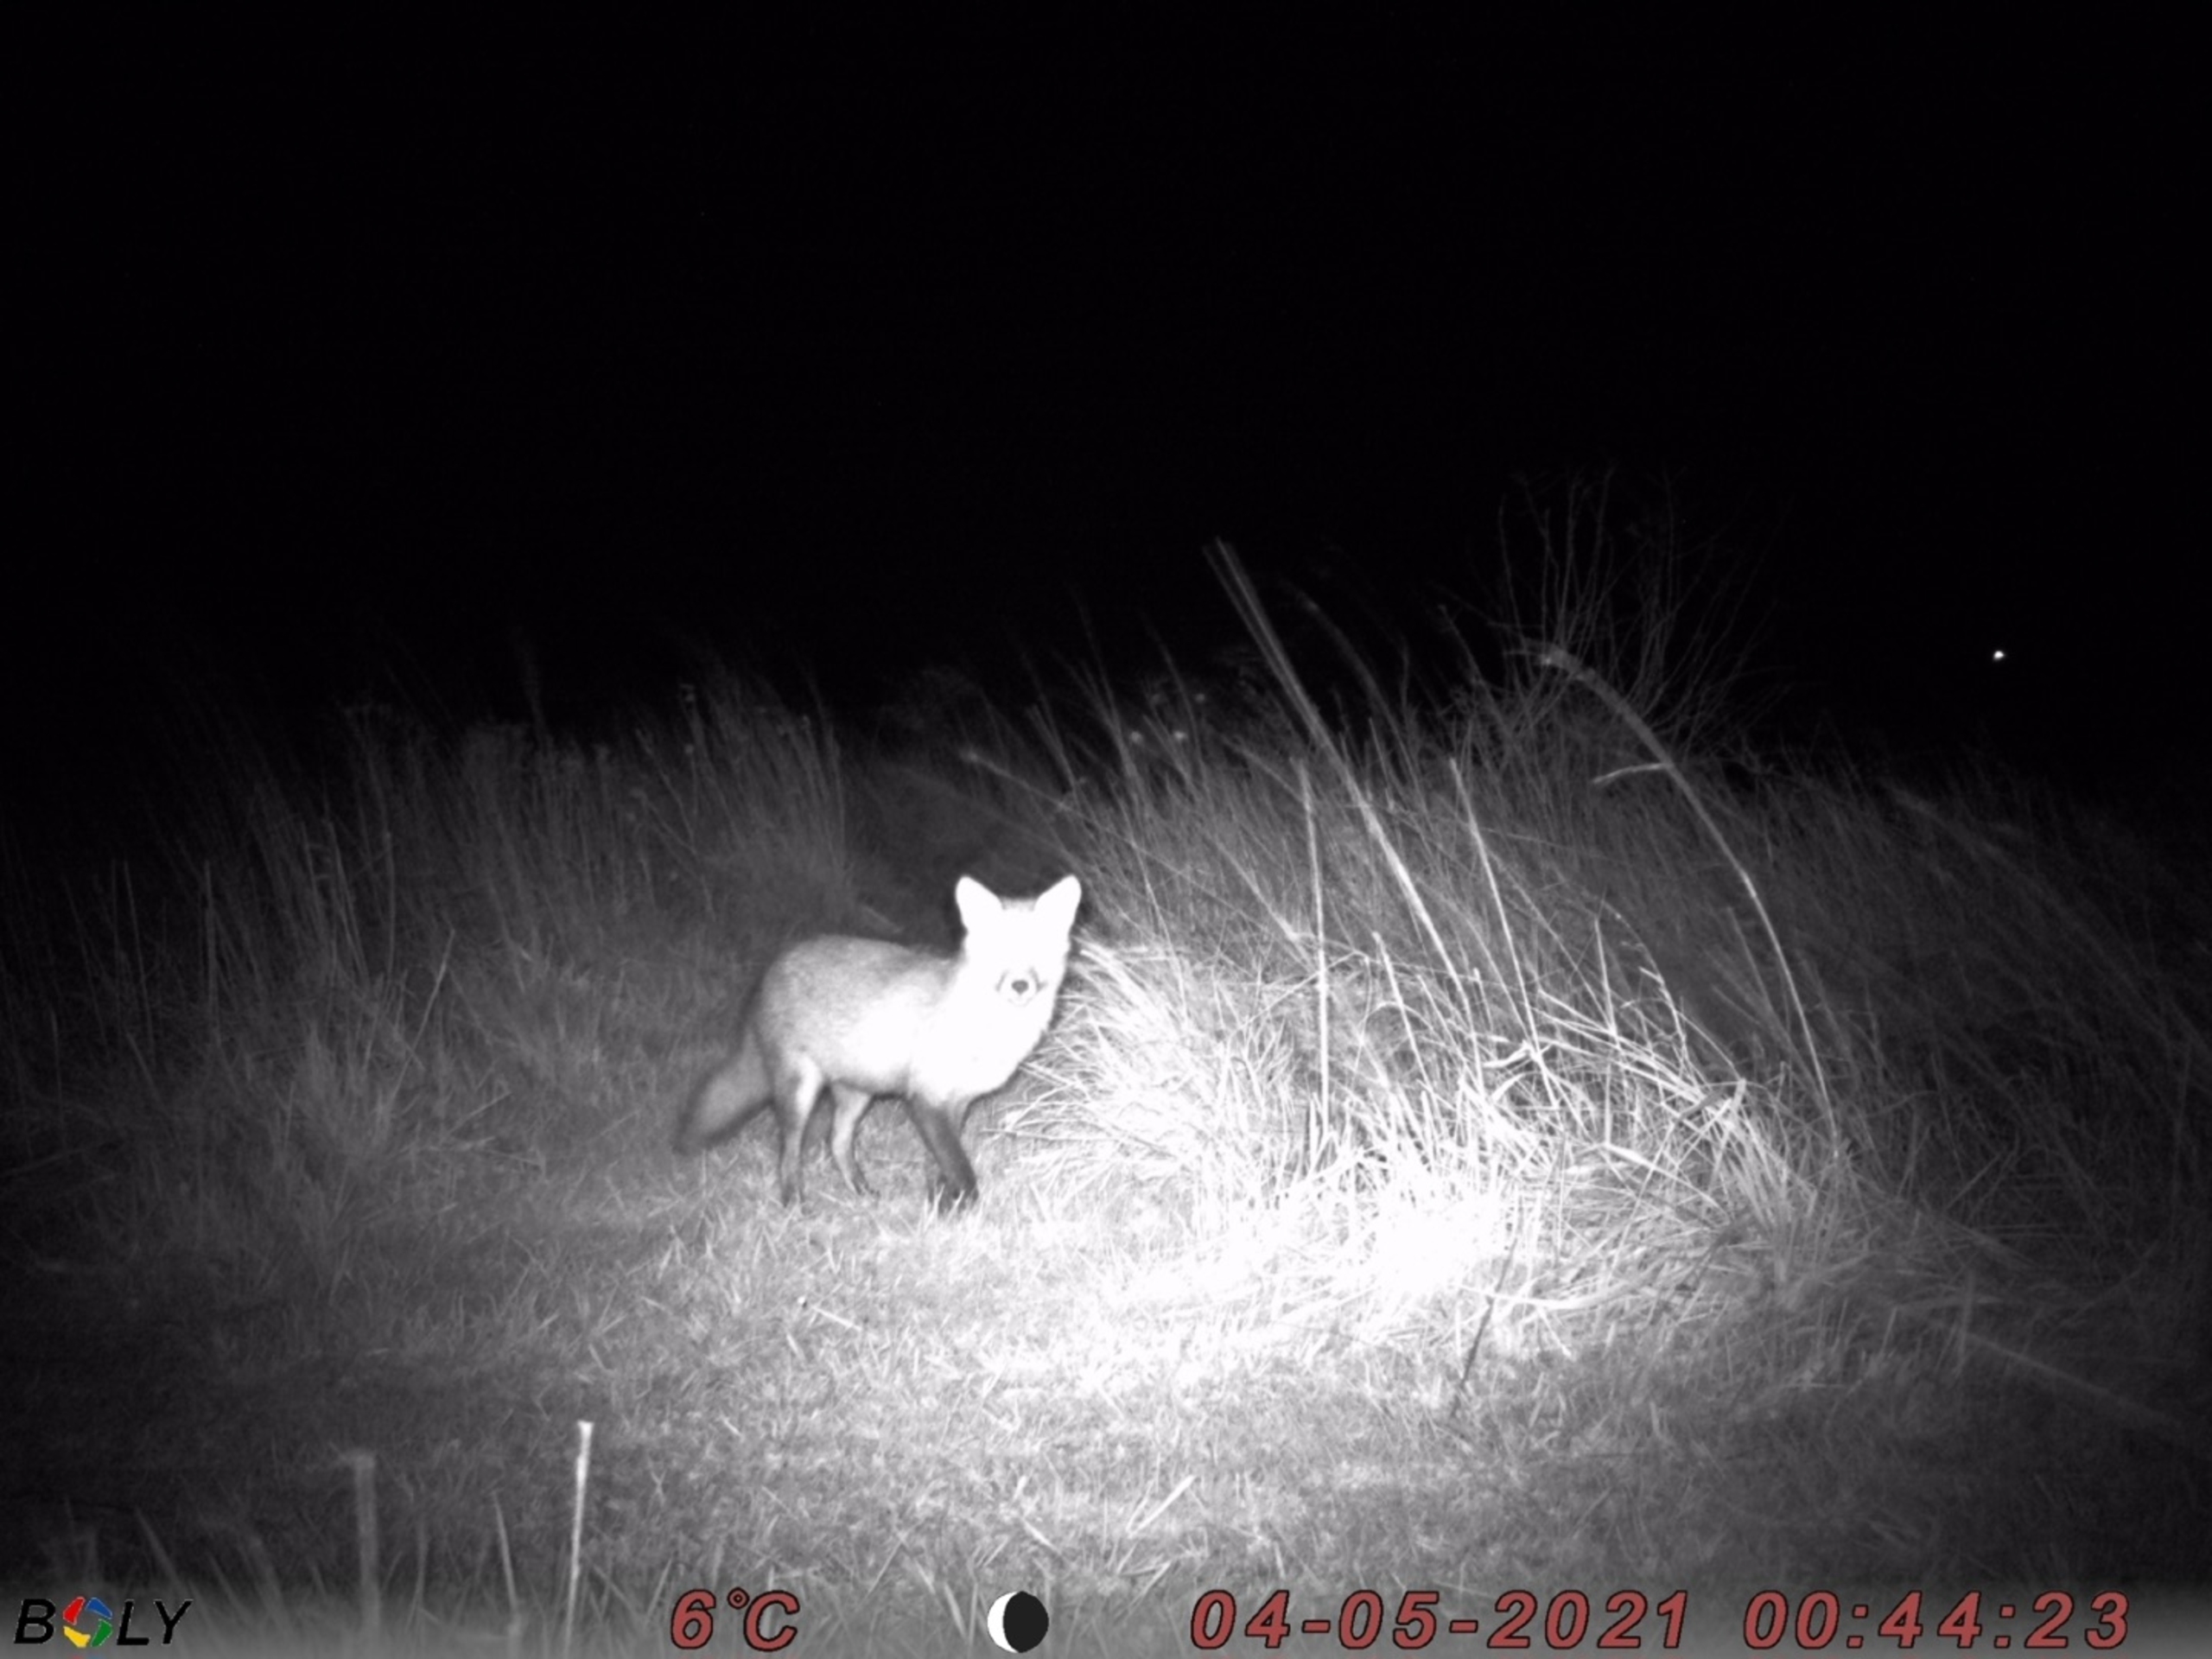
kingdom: Animalia
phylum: Chordata
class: Mammalia
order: Carnivora
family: Canidae
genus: Vulpes
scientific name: Vulpes vulpes
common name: Ræv
